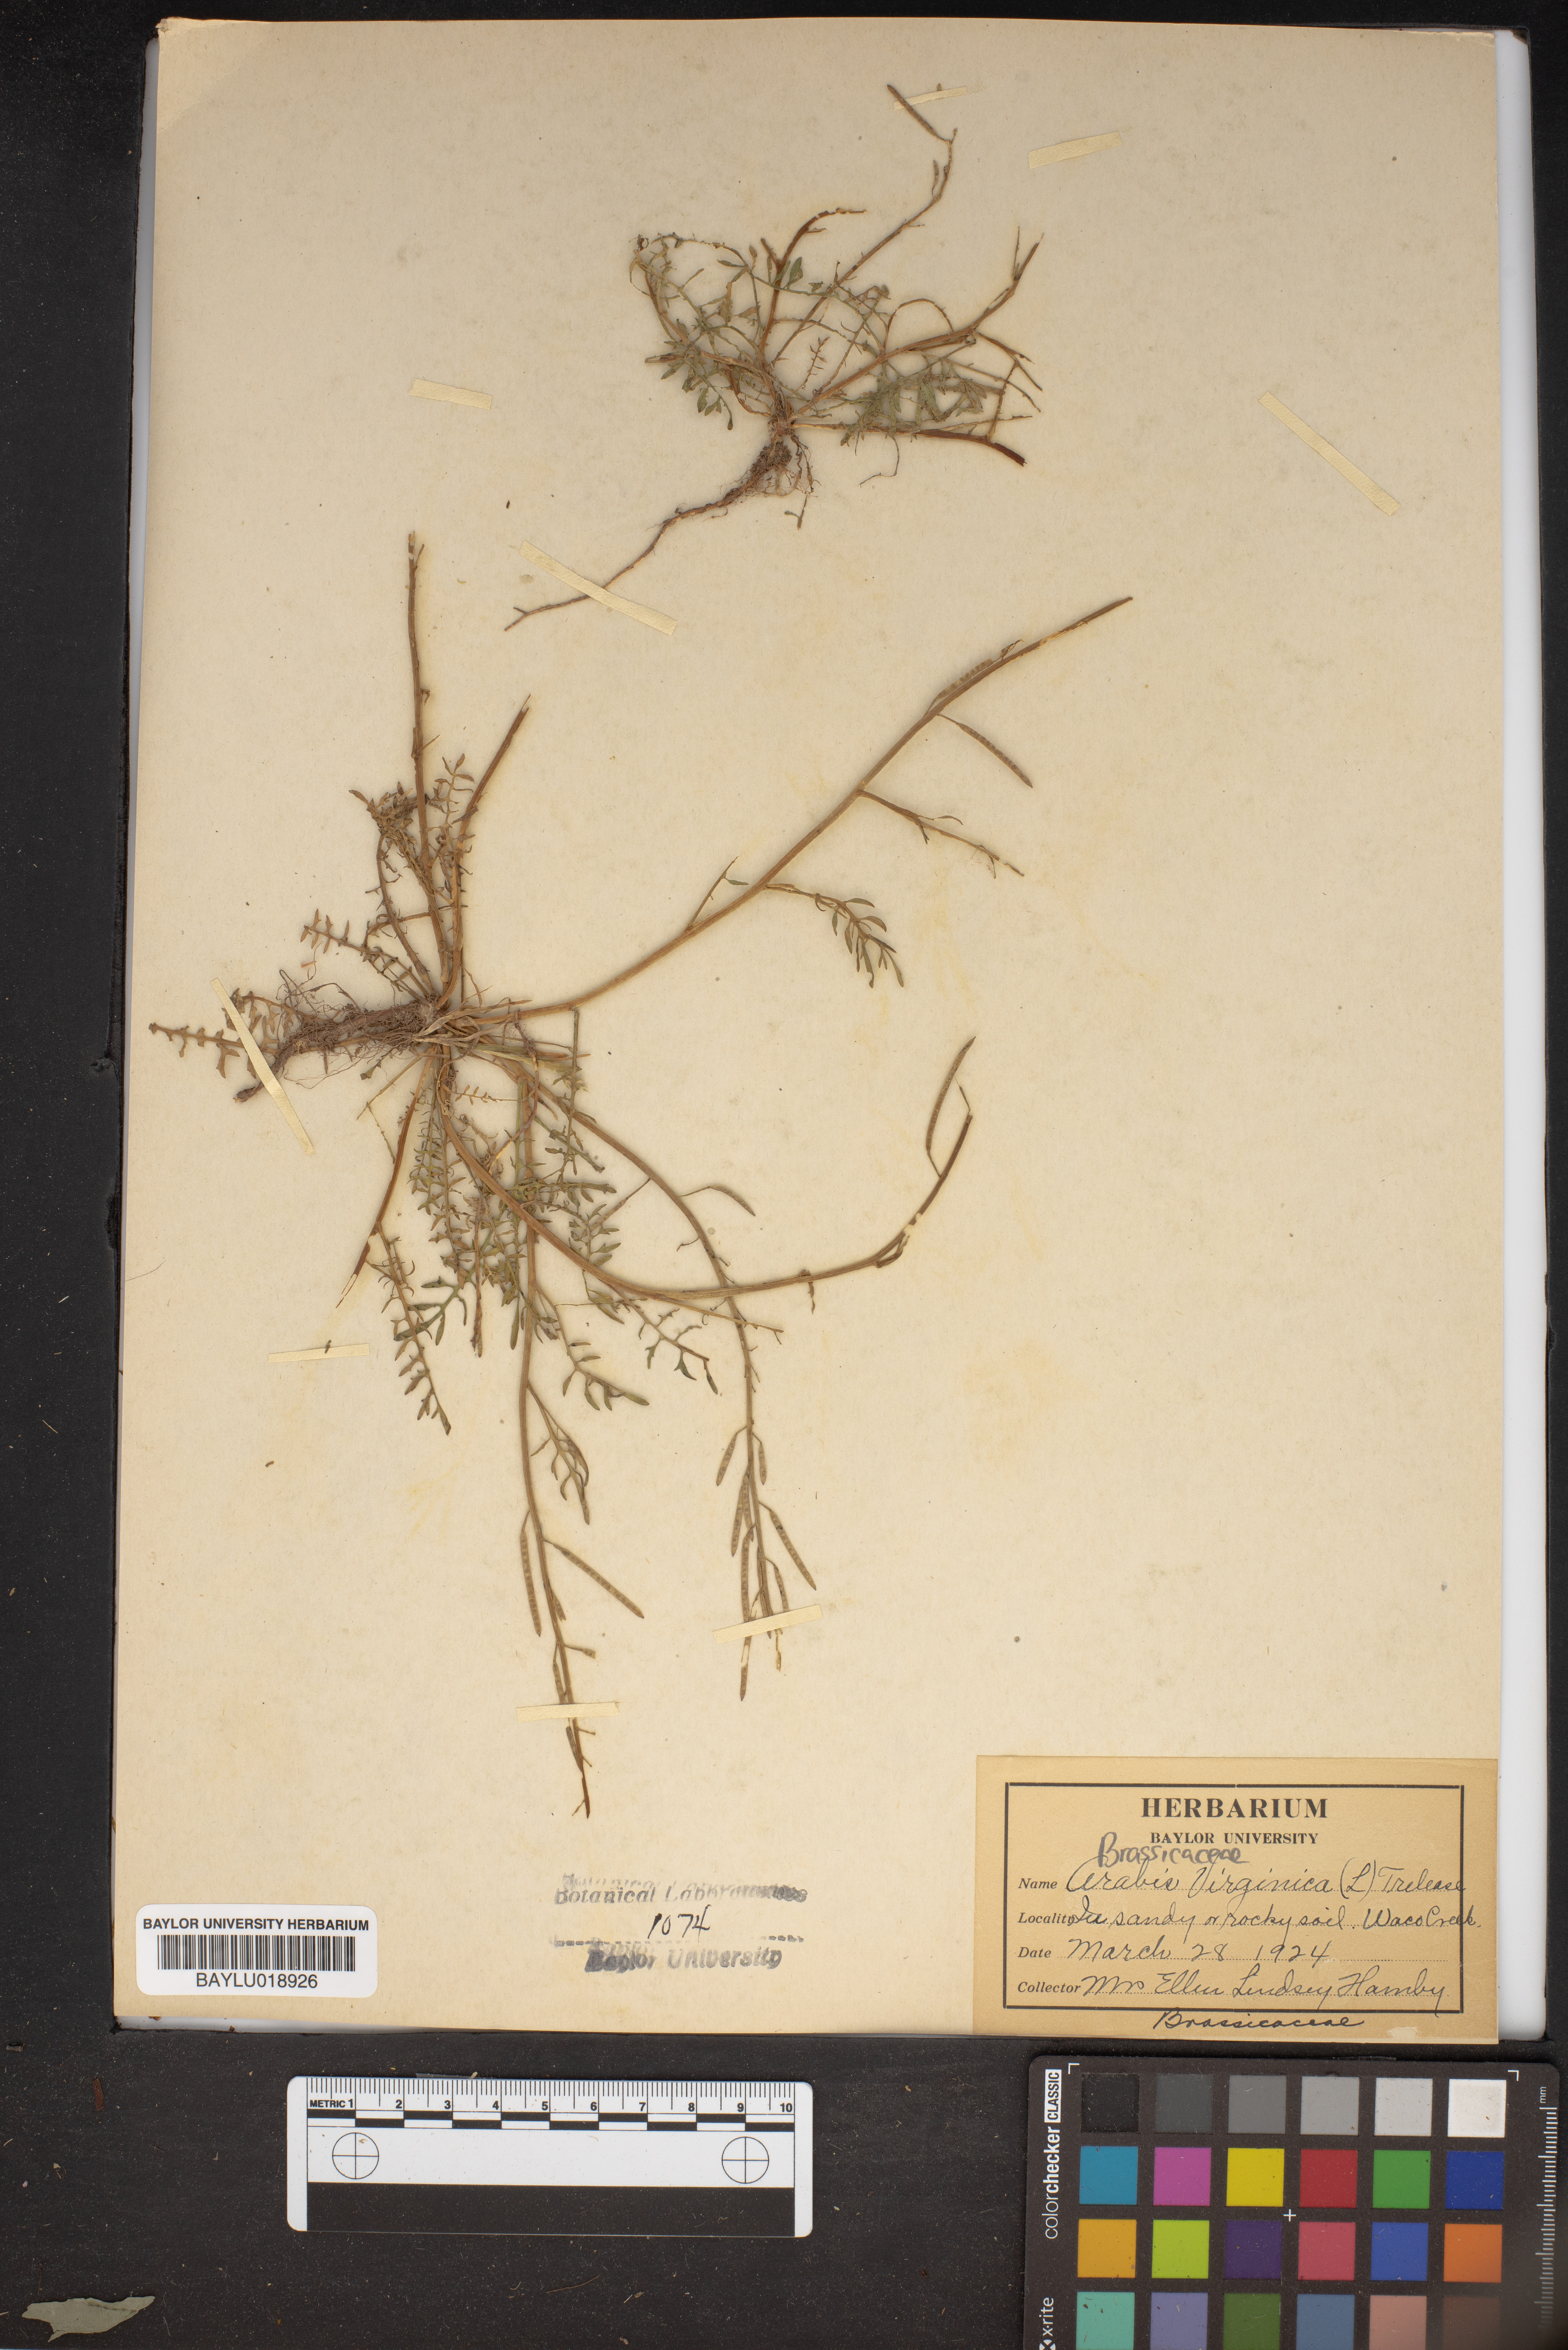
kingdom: Plantae
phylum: Tracheophyta
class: Magnoliopsida
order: Brassicales
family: Brassicaceae
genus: Planodes
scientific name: Planodes virginicum
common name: Virginia cress
